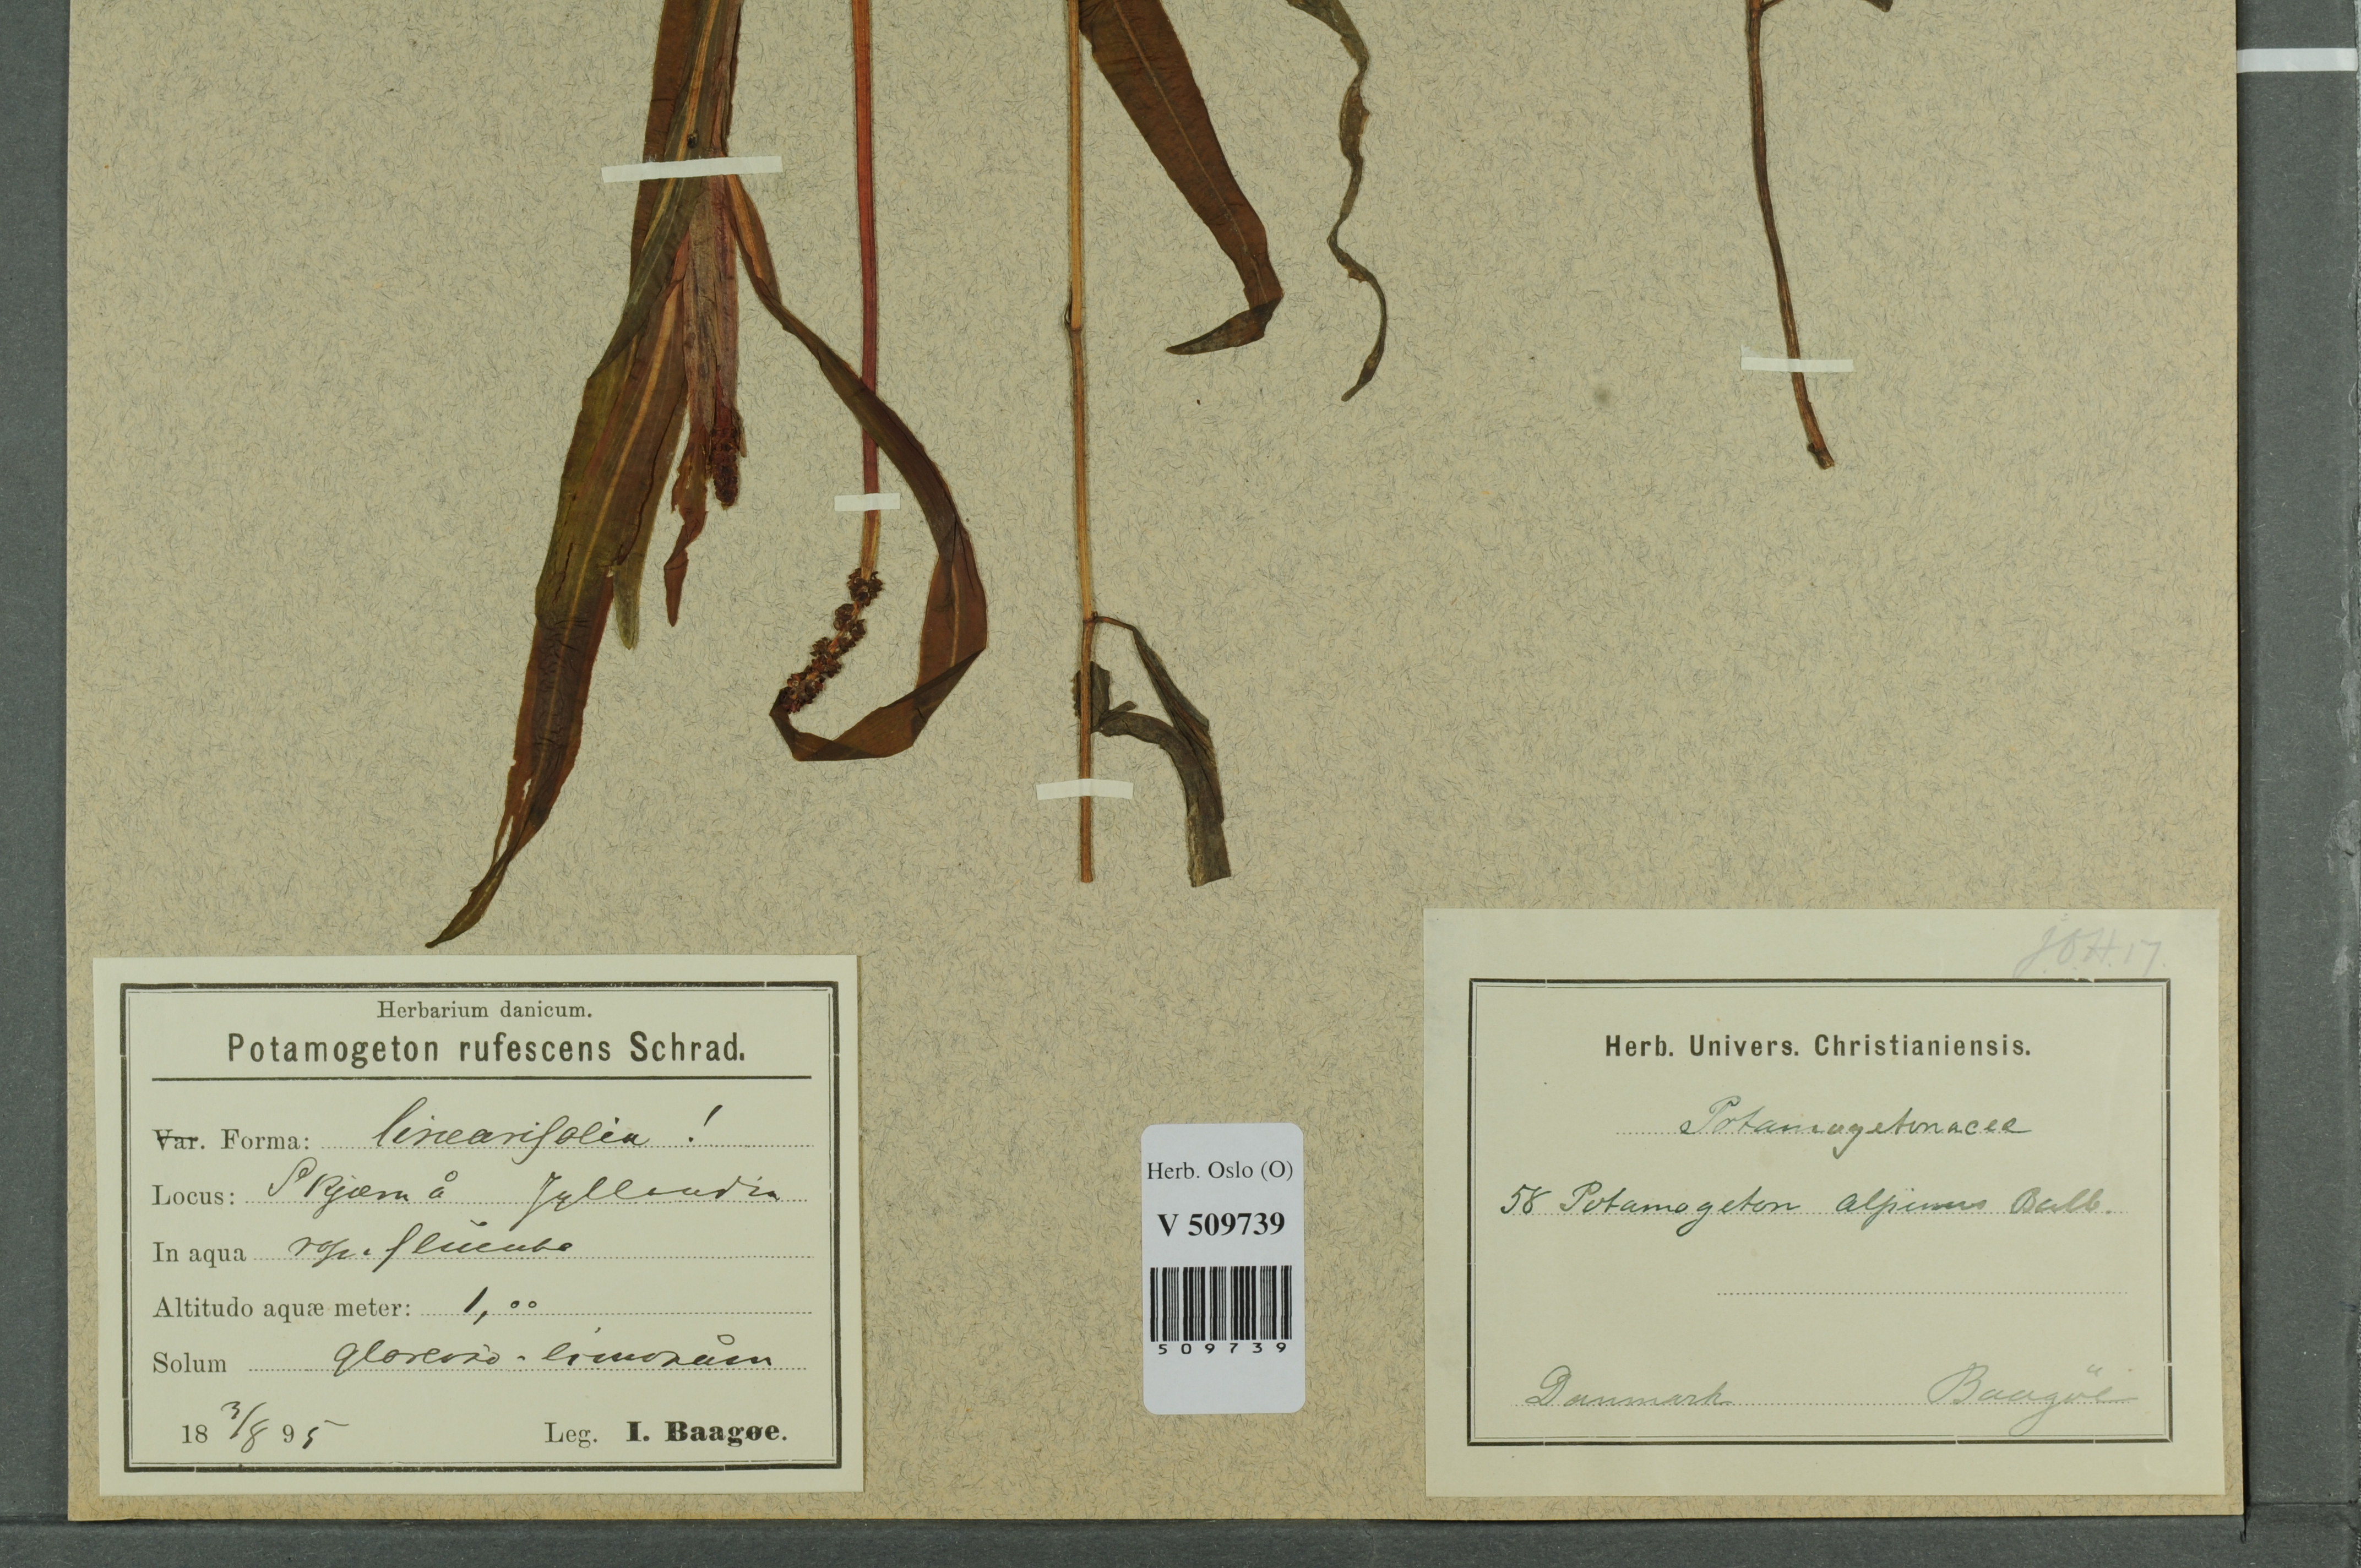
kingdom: Plantae
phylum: Tracheophyta
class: Liliopsida
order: Alismatales
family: Potamogetonaceae
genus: Potamogeton
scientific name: Potamogeton alpinus
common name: Red pondweed
